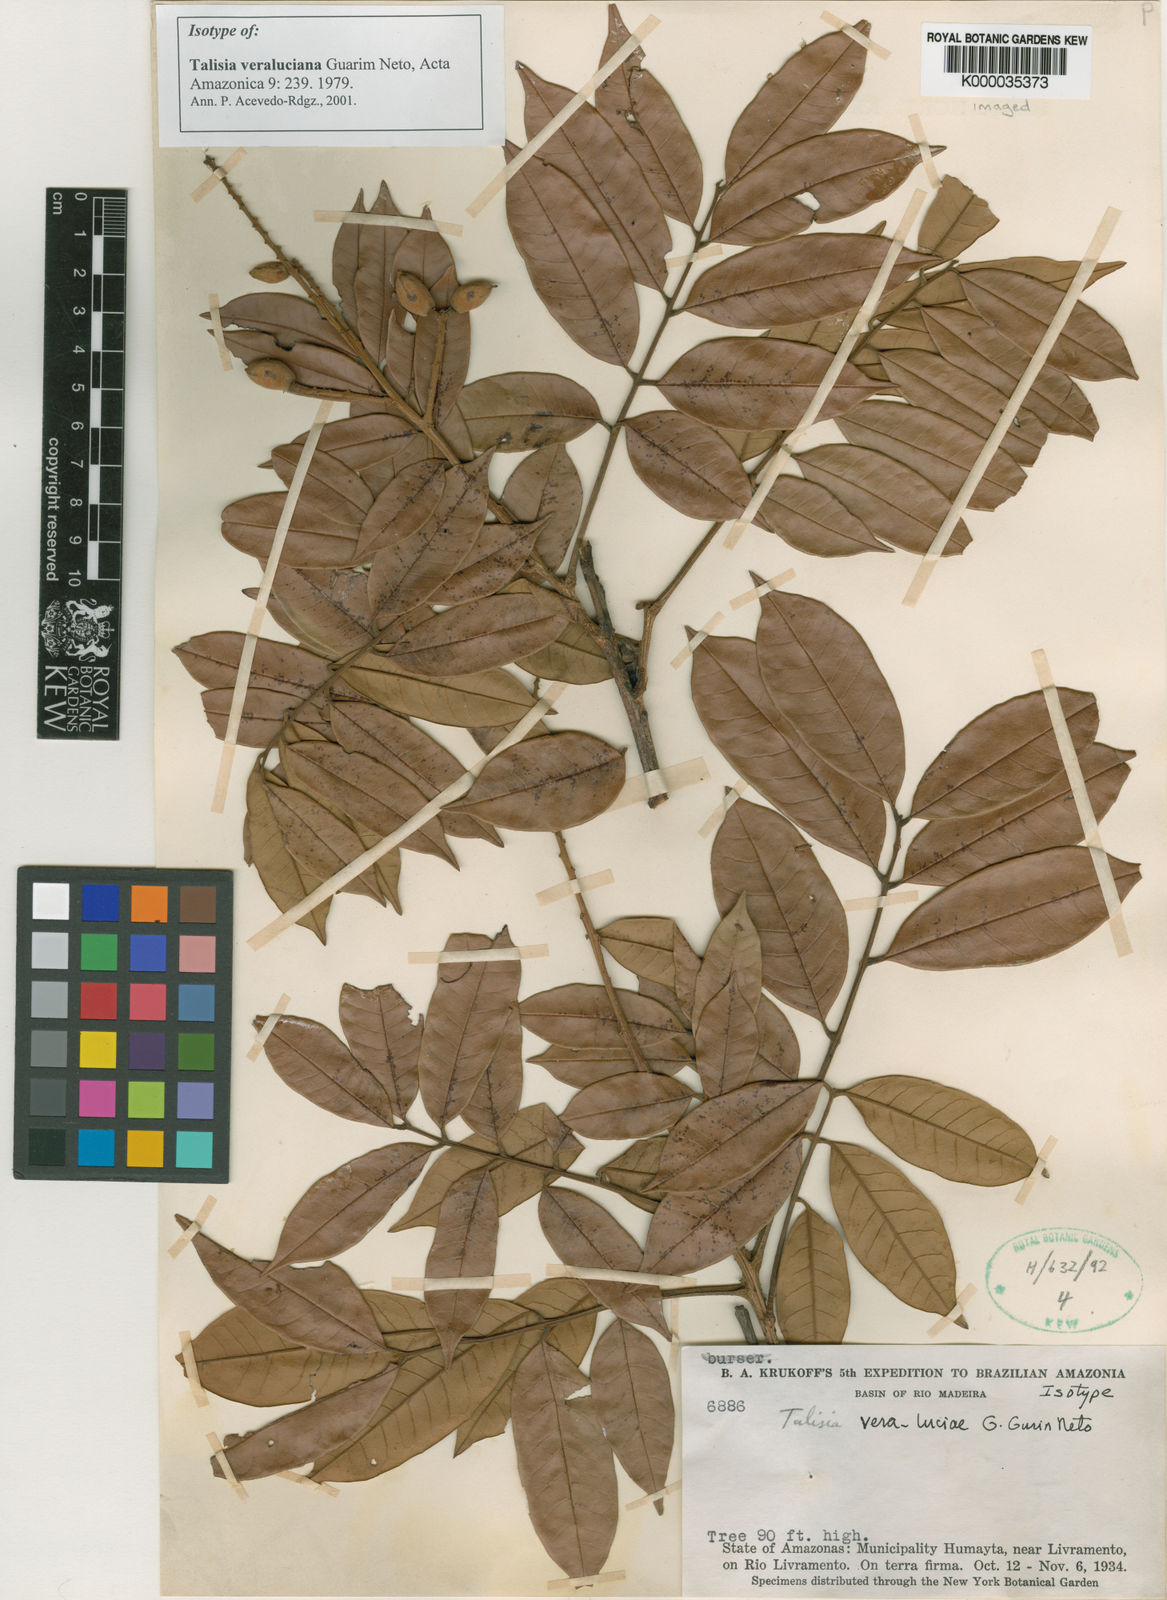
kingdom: Plantae
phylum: Tracheophyta
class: Magnoliopsida
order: Sapindales
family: Sapindaceae
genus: Talisia
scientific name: Talisia veraluciana
